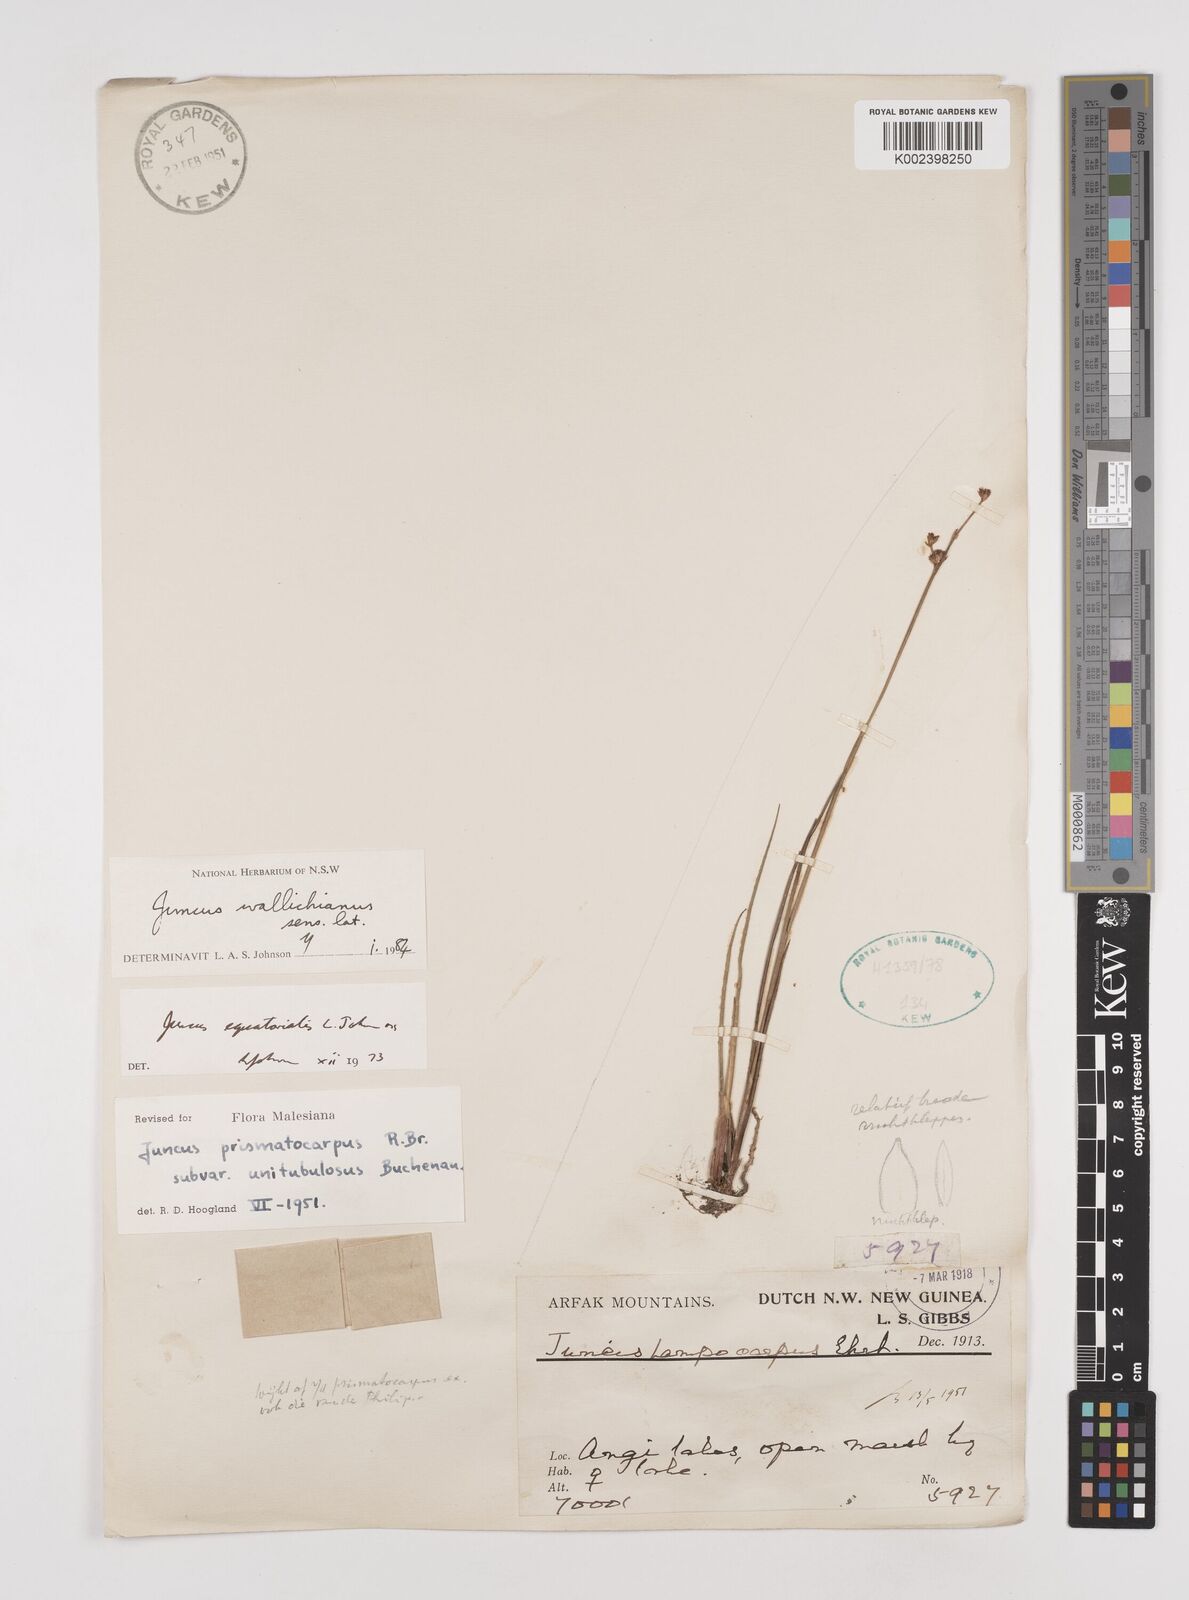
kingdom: Plantae
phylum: Tracheophyta
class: Liliopsida
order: Poales
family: Juncaceae
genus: Juncus
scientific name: Juncus wallichianus
